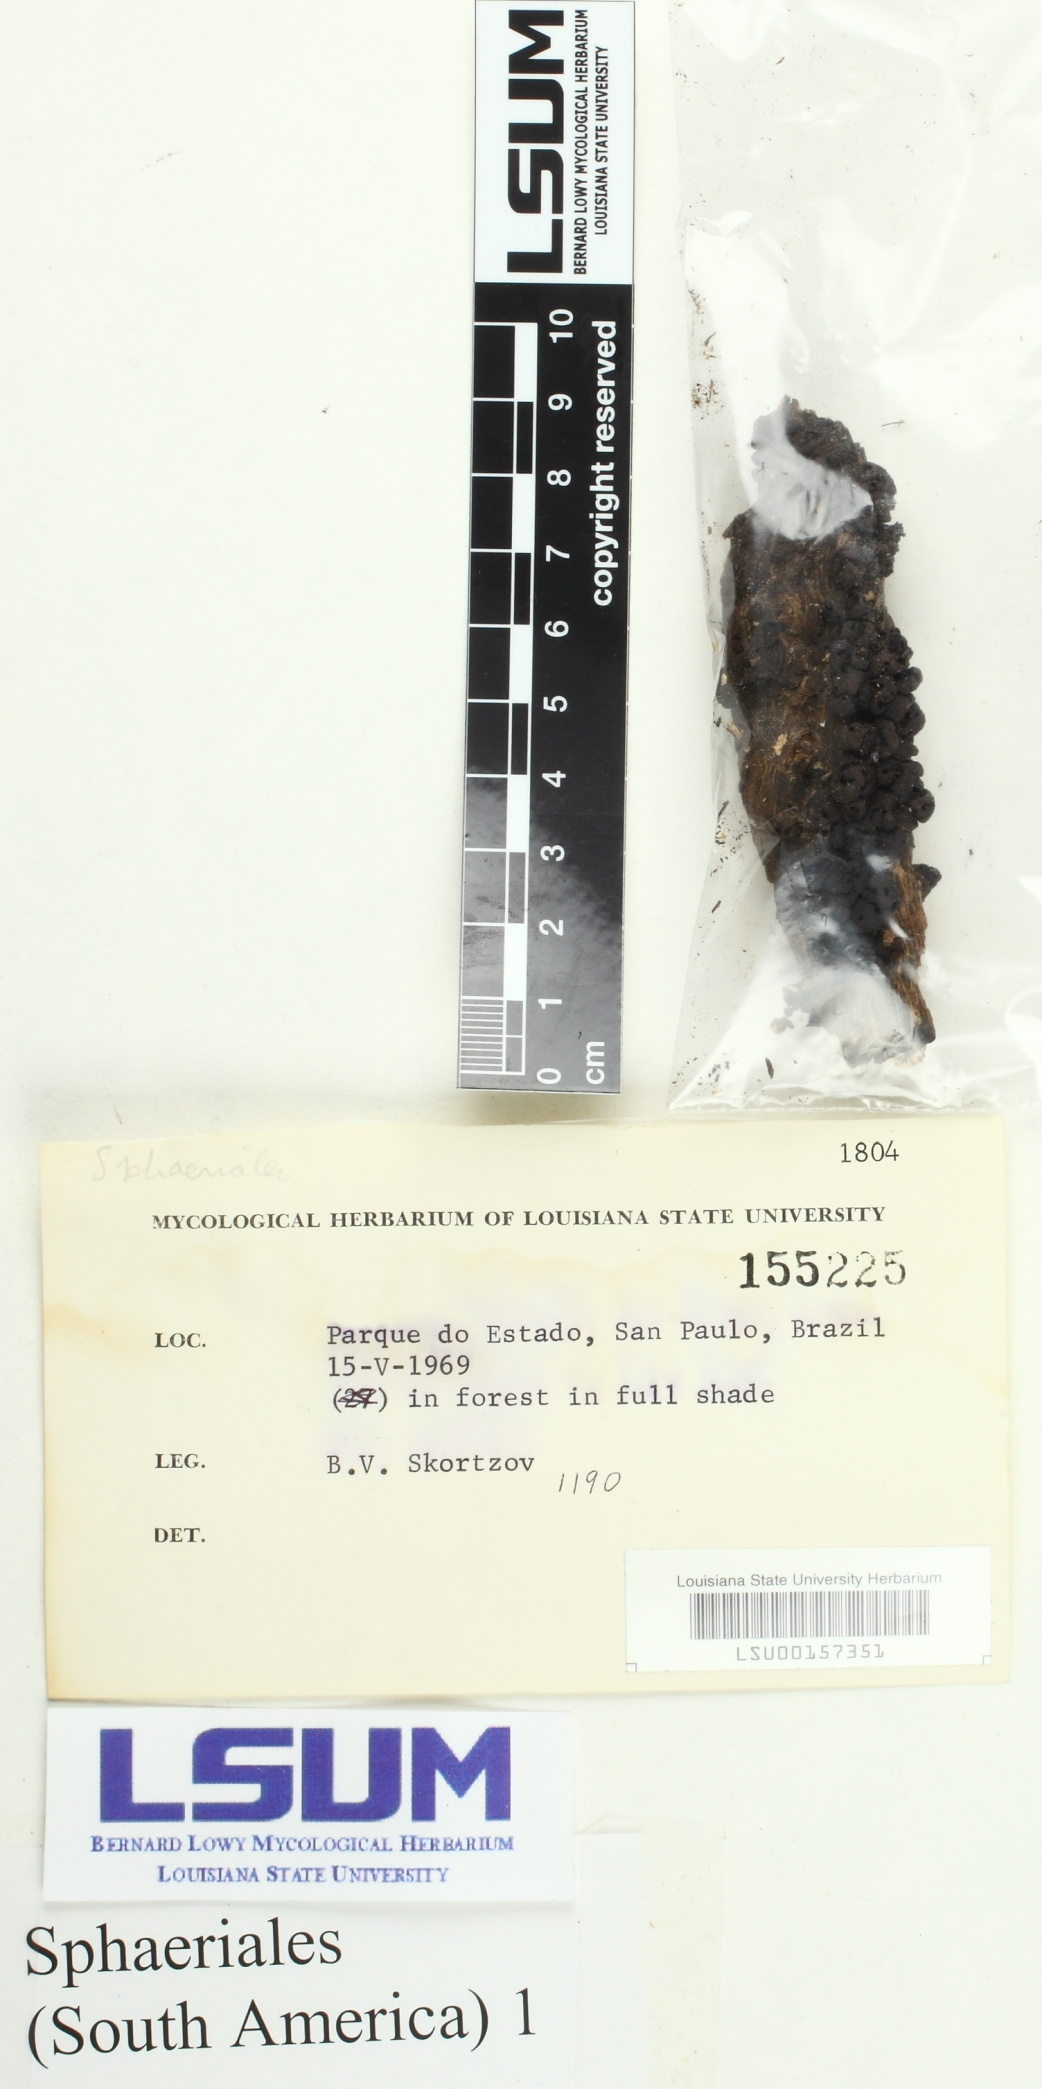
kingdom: Fungi
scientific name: Fungi
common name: Fungi
